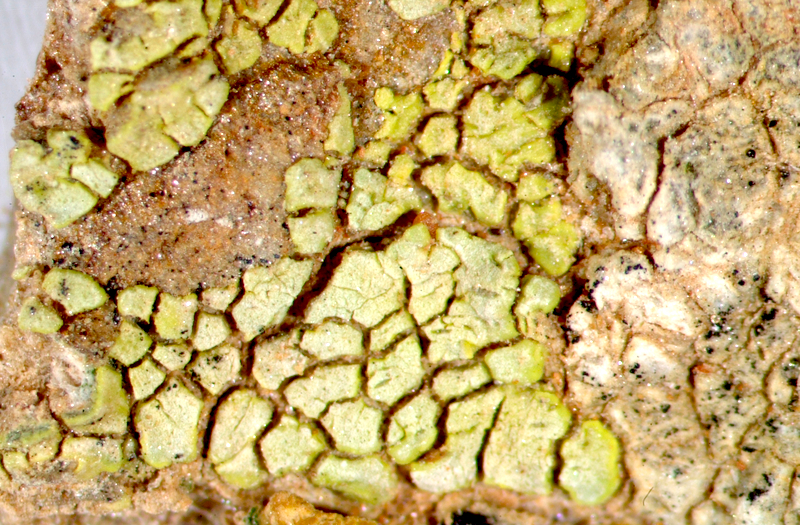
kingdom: Fungi
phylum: Ascomycota
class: Lecanoromycetes
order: Acarosporales
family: Acarosporaceae
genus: Acarospora
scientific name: Acarospora
